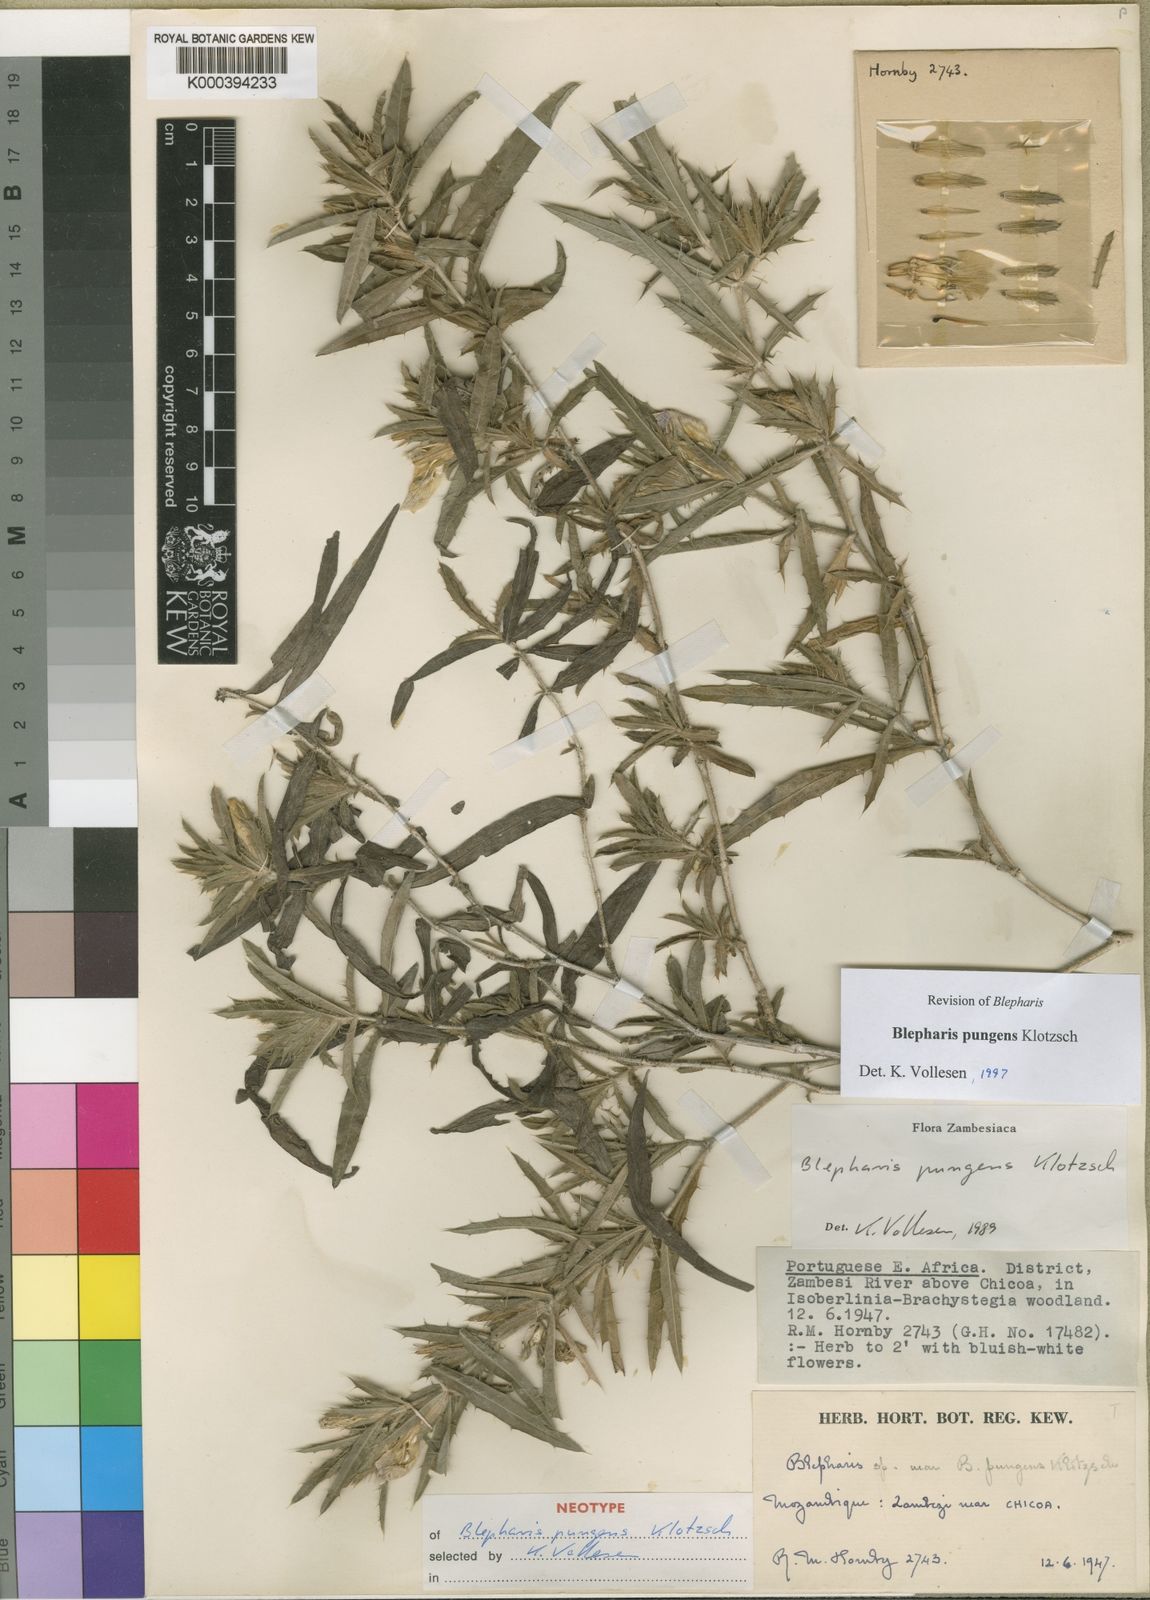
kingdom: Plantae
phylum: Tracheophyta
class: Magnoliopsida
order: Lamiales
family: Acanthaceae
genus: Blepharis
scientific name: Blepharis pungens
